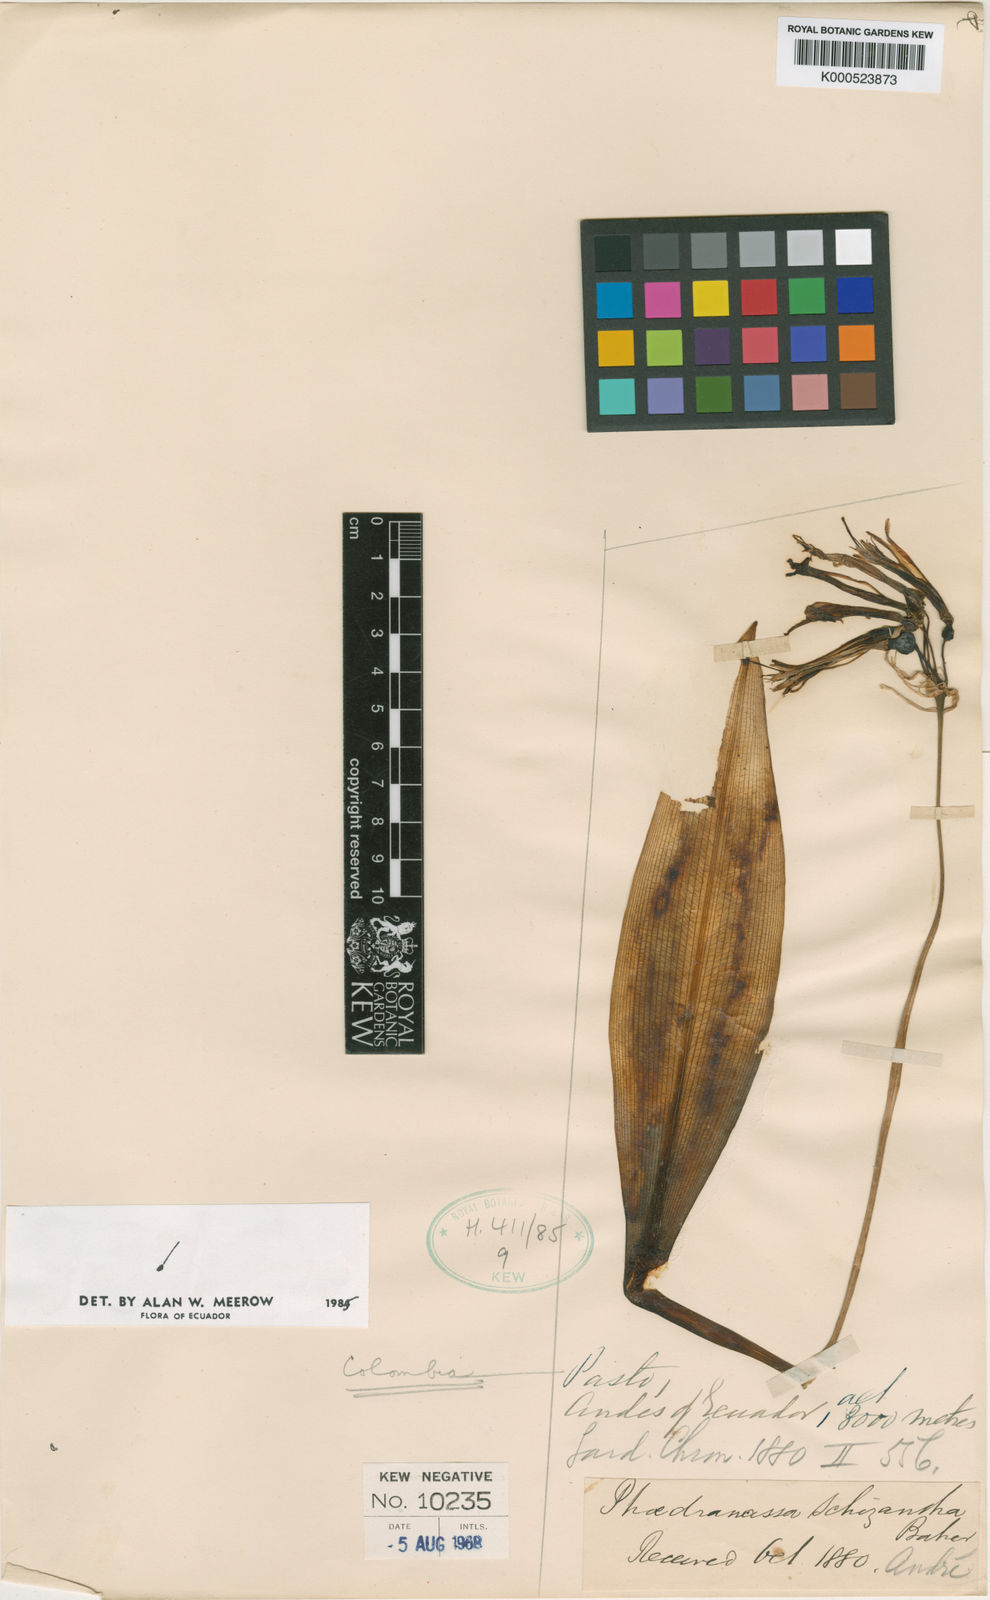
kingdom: Plantae
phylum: Tracheophyta
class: Liliopsida
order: Asparagales
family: Amaryllidaceae
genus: Phaedranassa
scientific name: Phaedranassa schizantha
